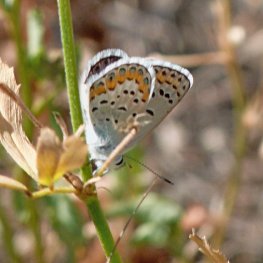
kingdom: Animalia
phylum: Arthropoda
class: Insecta
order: Lepidoptera
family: Lycaenidae
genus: Lycaeides
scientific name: Lycaeides melissa
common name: Melissa Blue
